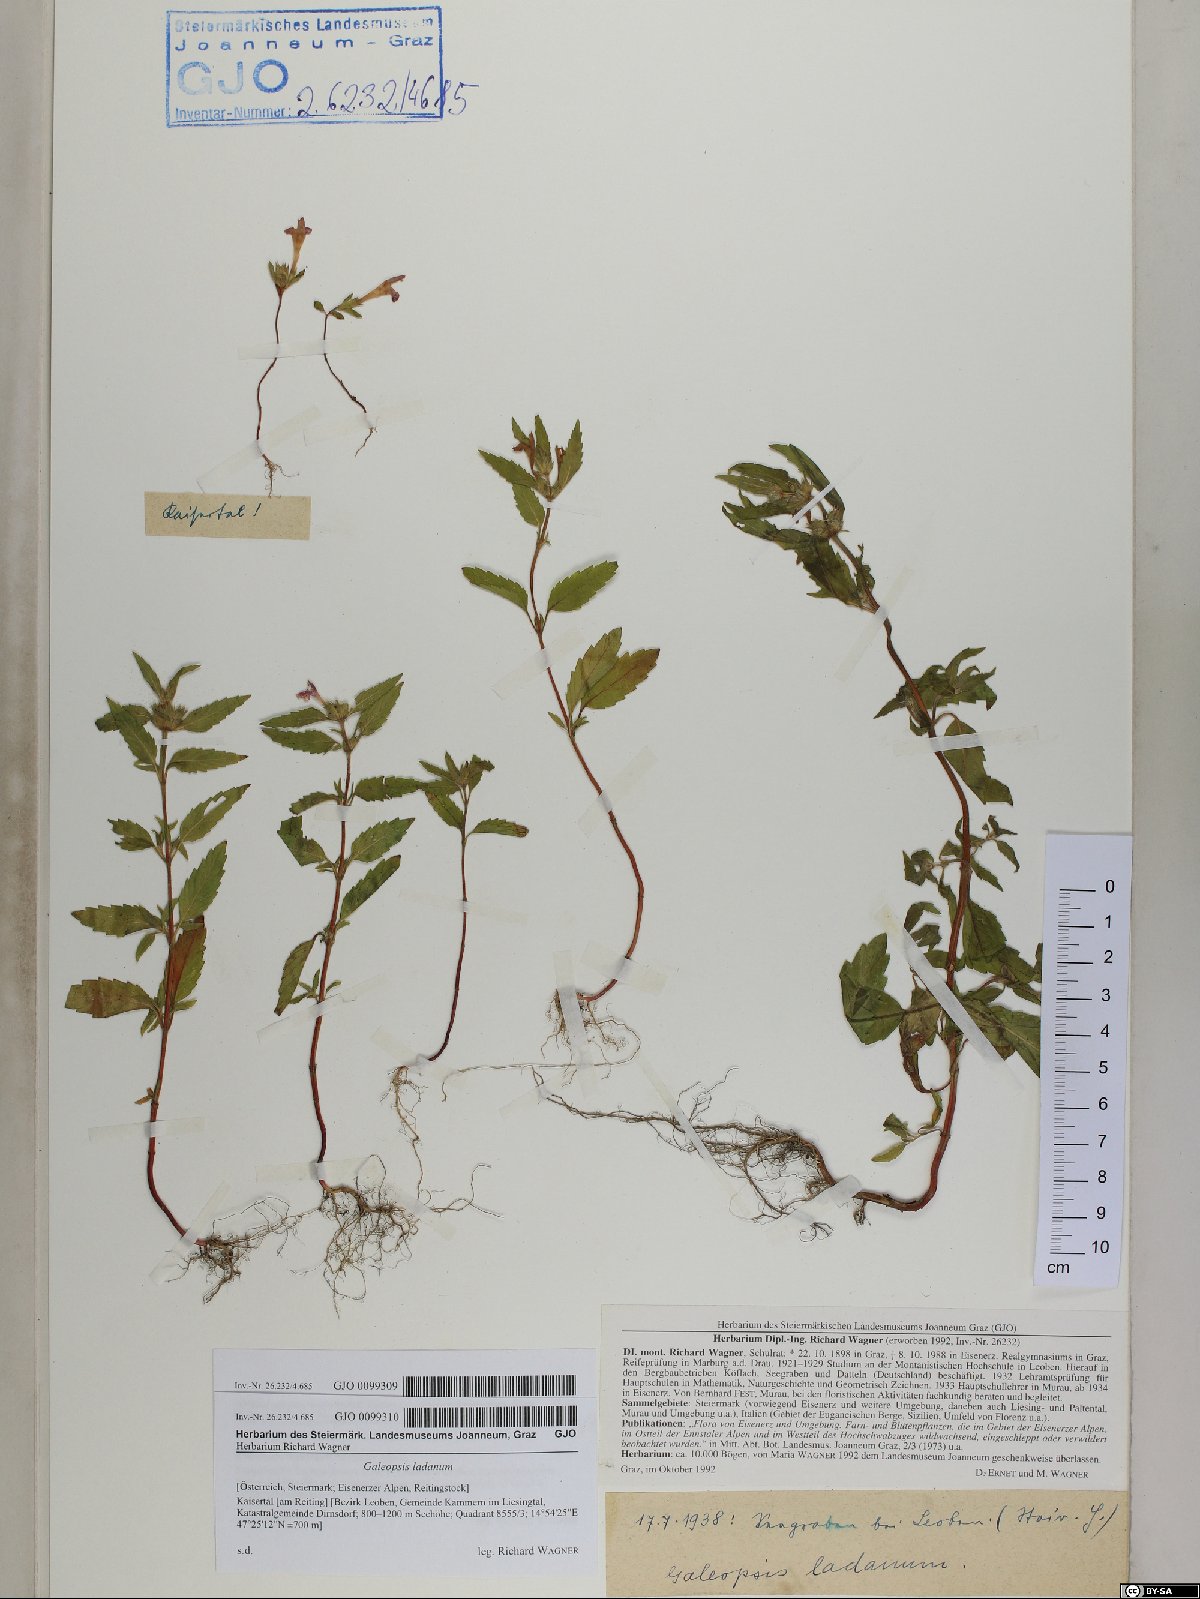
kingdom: Plantae
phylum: Tracheophyta
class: Magnoliopsida
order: Lamiales
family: Lamiaceae
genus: Galeopsis
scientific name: Galeopsis ladanum
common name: Broad-leaved hemp-nettle
